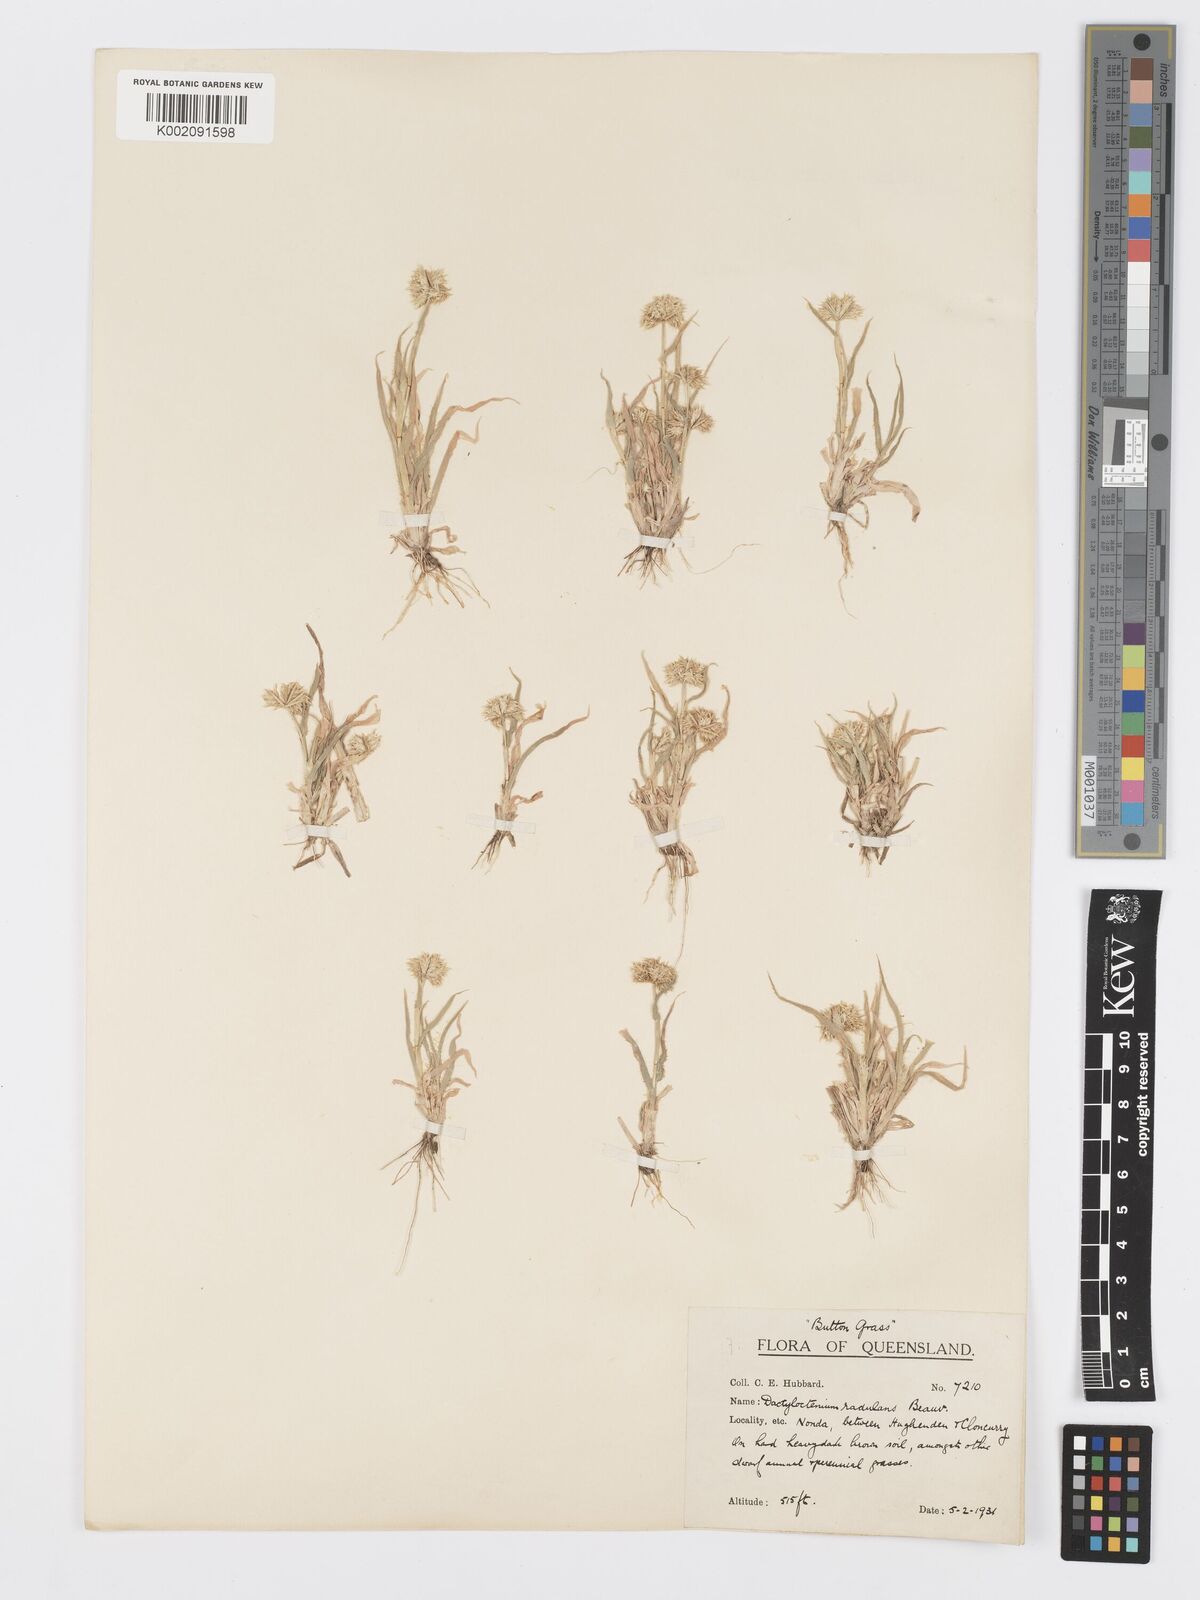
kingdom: Plantae
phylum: Tracheophyta
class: Liliopsida
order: Poales
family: Poaceae
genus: Dactyloctenium
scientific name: Dactyloctenium radulans
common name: Button-grass
